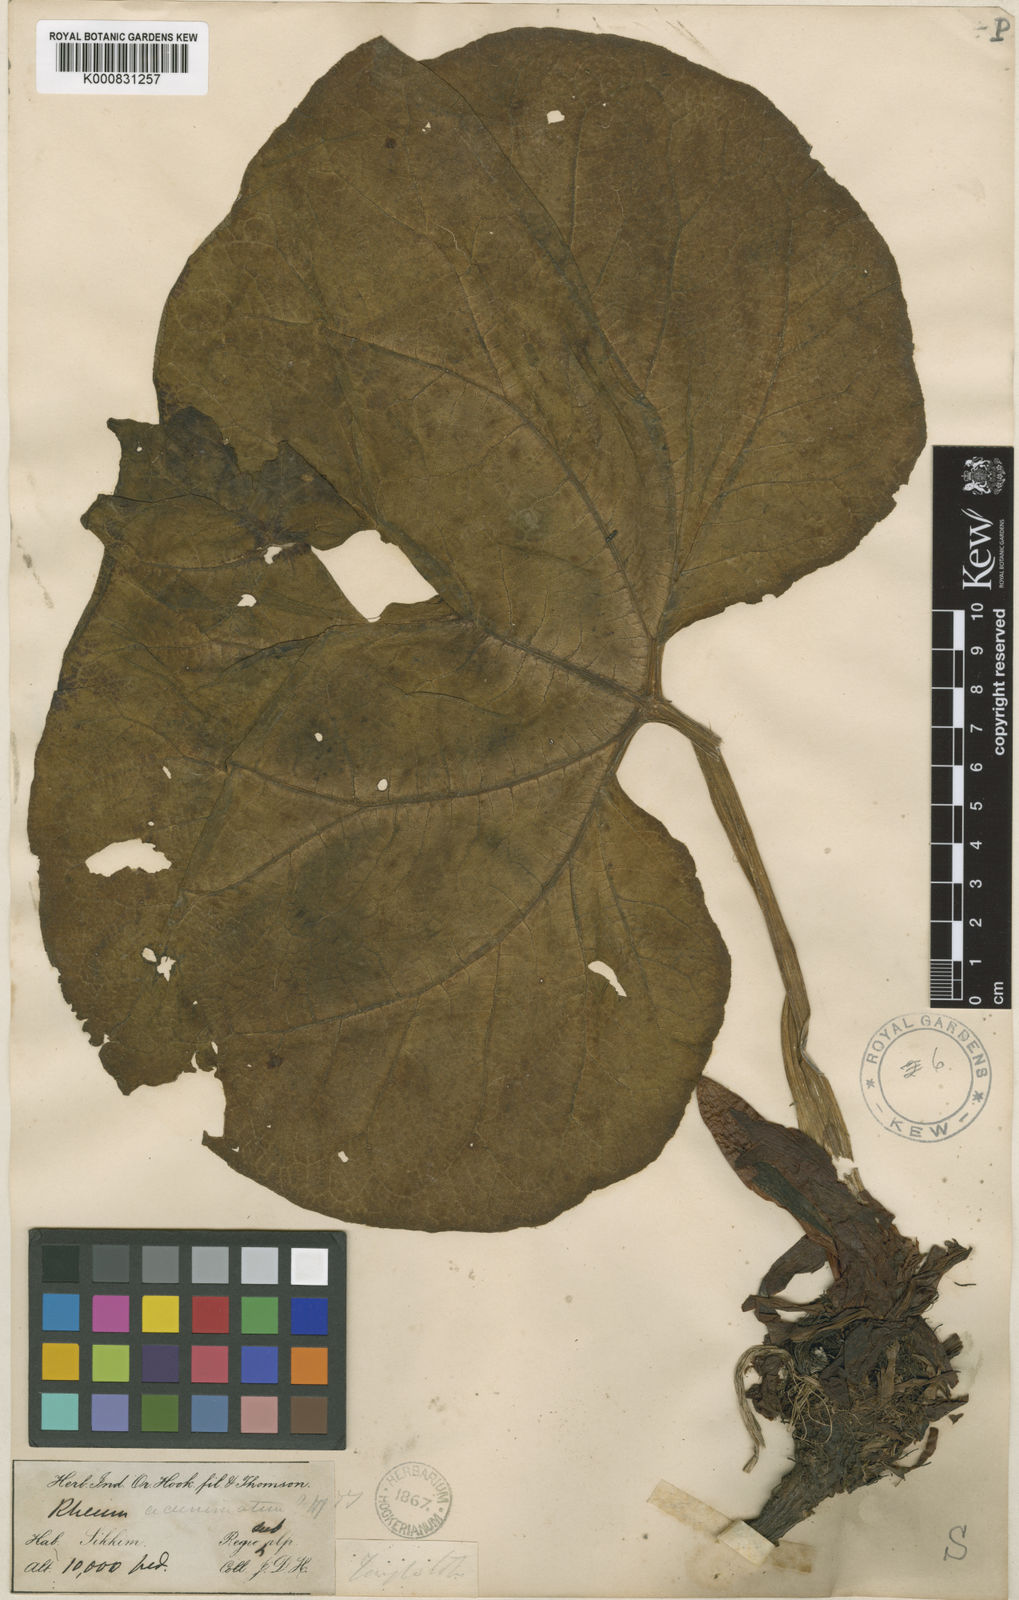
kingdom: Plantae
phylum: Tracheophyta
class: Magnoliopsida
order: Caryophyllales
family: Polygonaceae
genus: Rheum
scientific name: Rheum acuminatum
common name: Himalayan rhubarb
